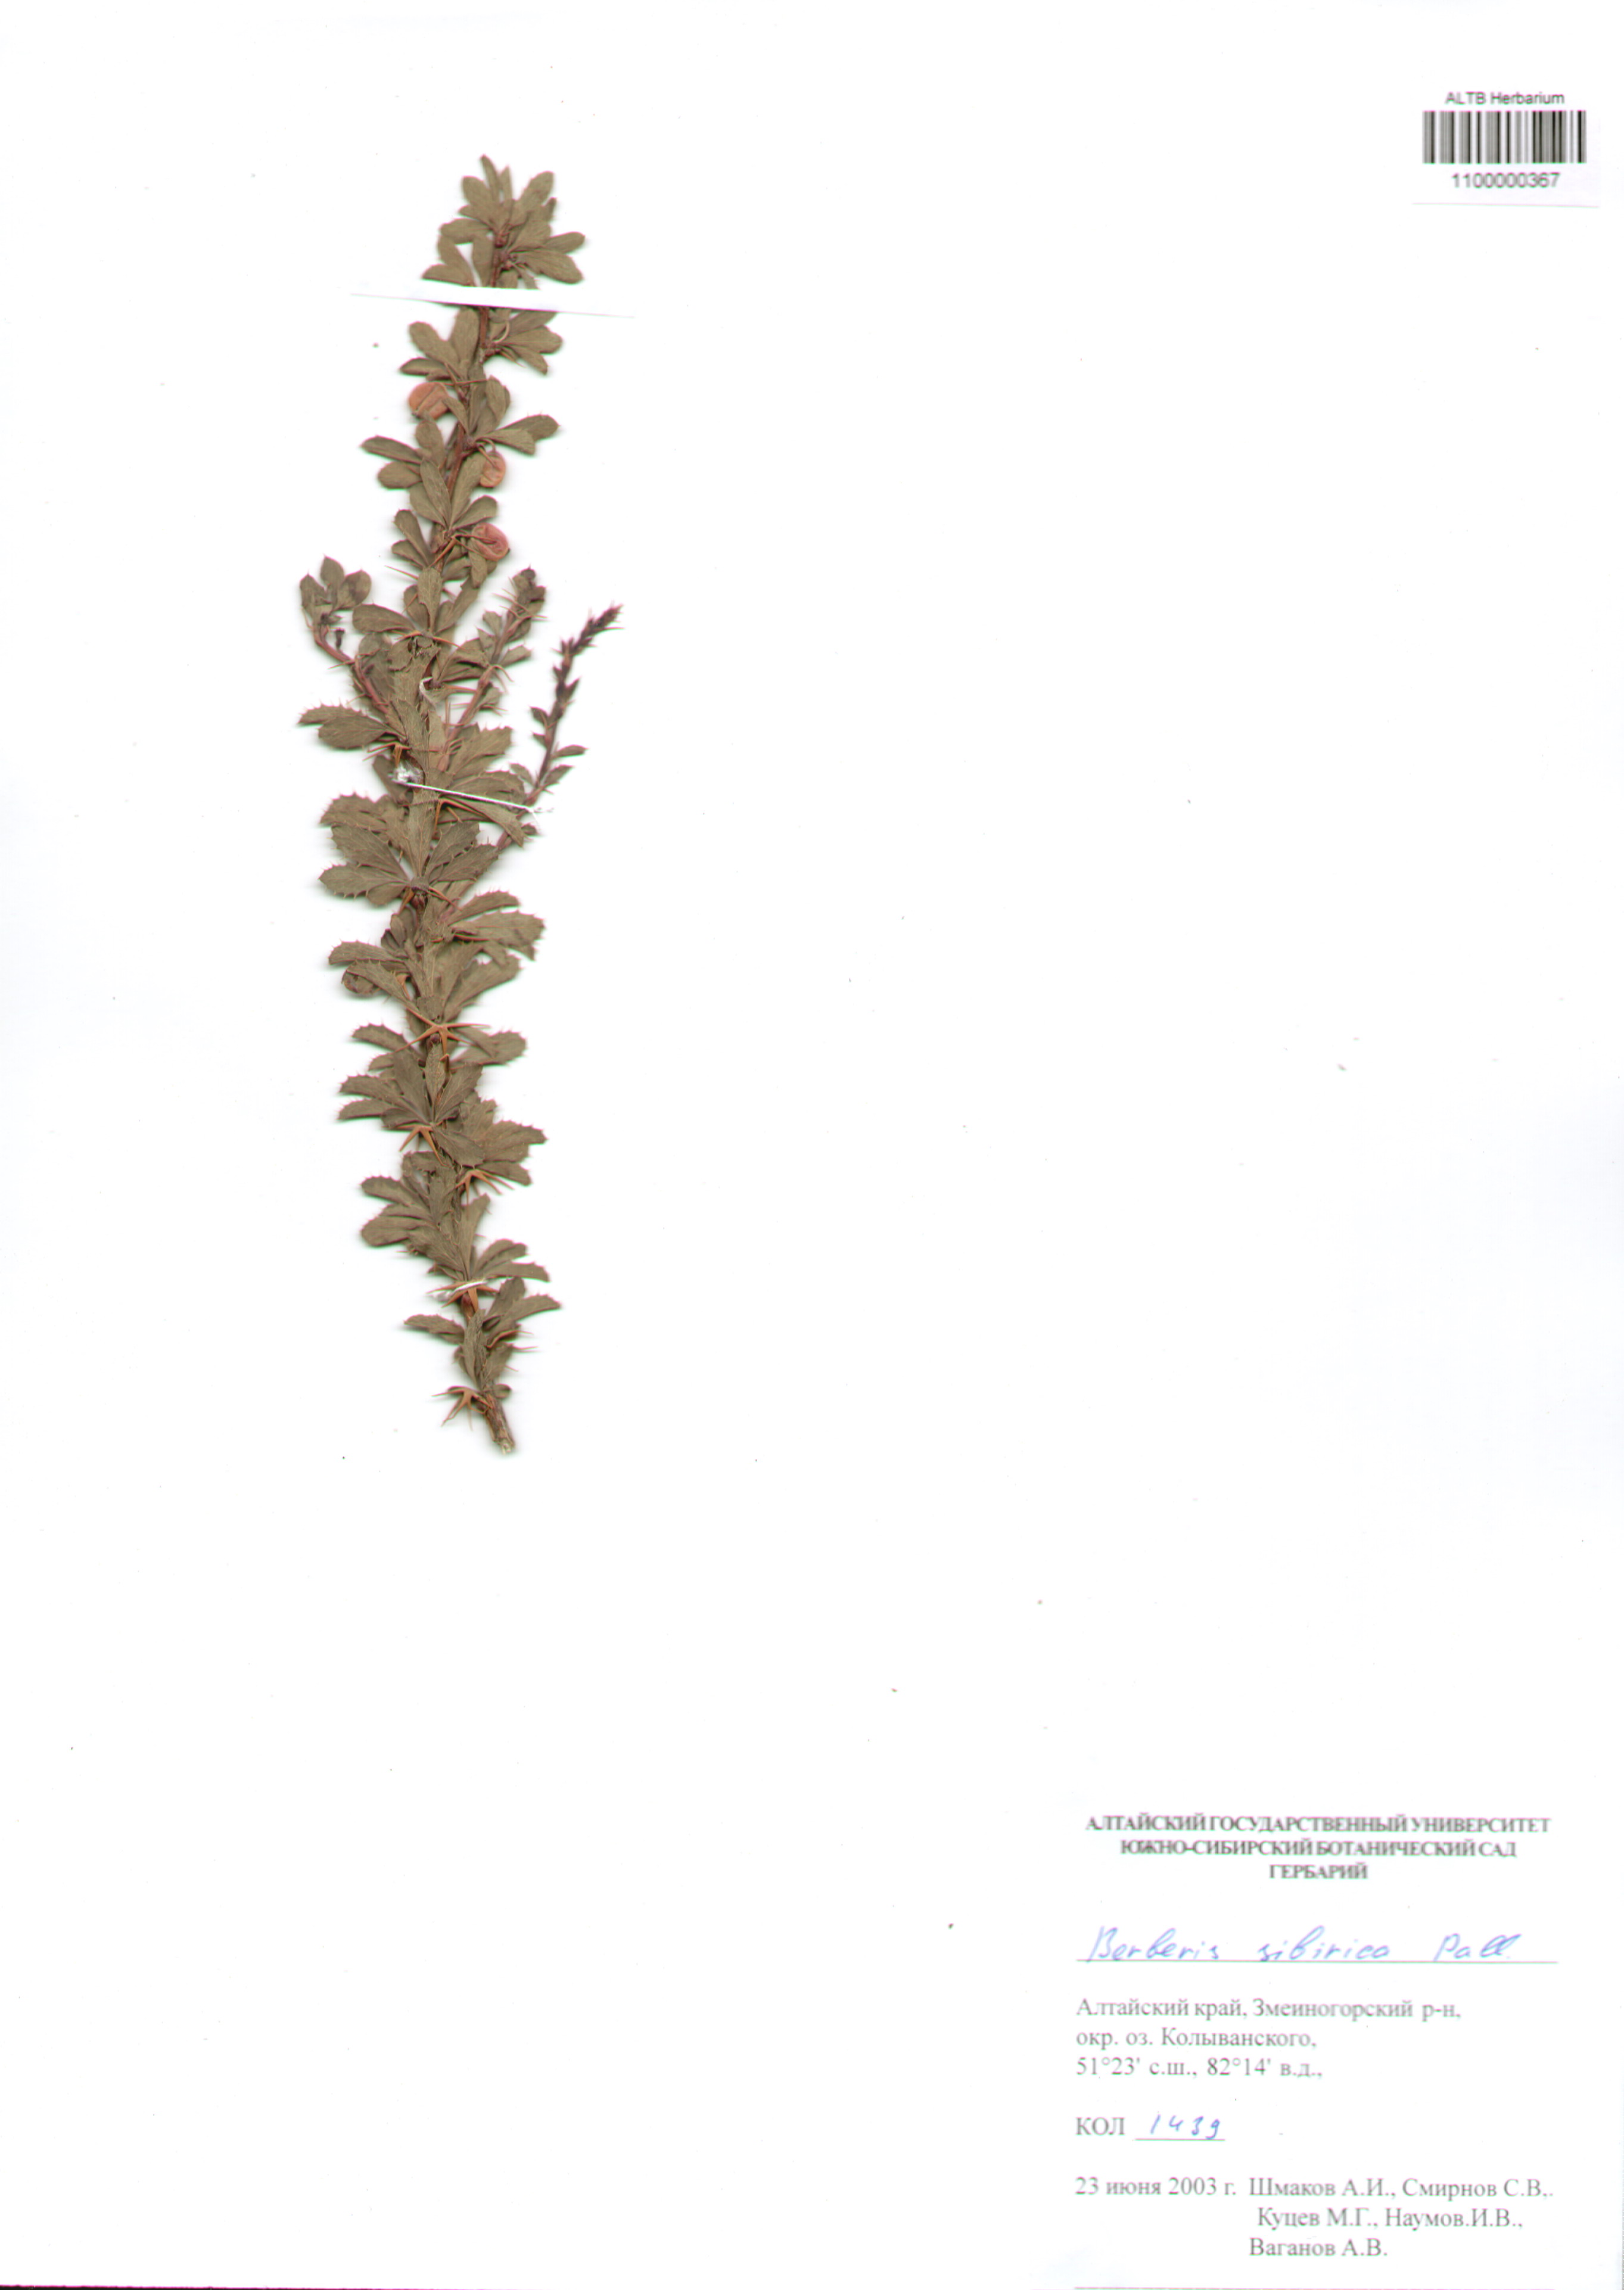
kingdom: Plantae
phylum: Tracheophyta
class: Magnoliopsida
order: Ranunculales
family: Berberidaceae
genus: Berberis
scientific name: Berberis sibirica
